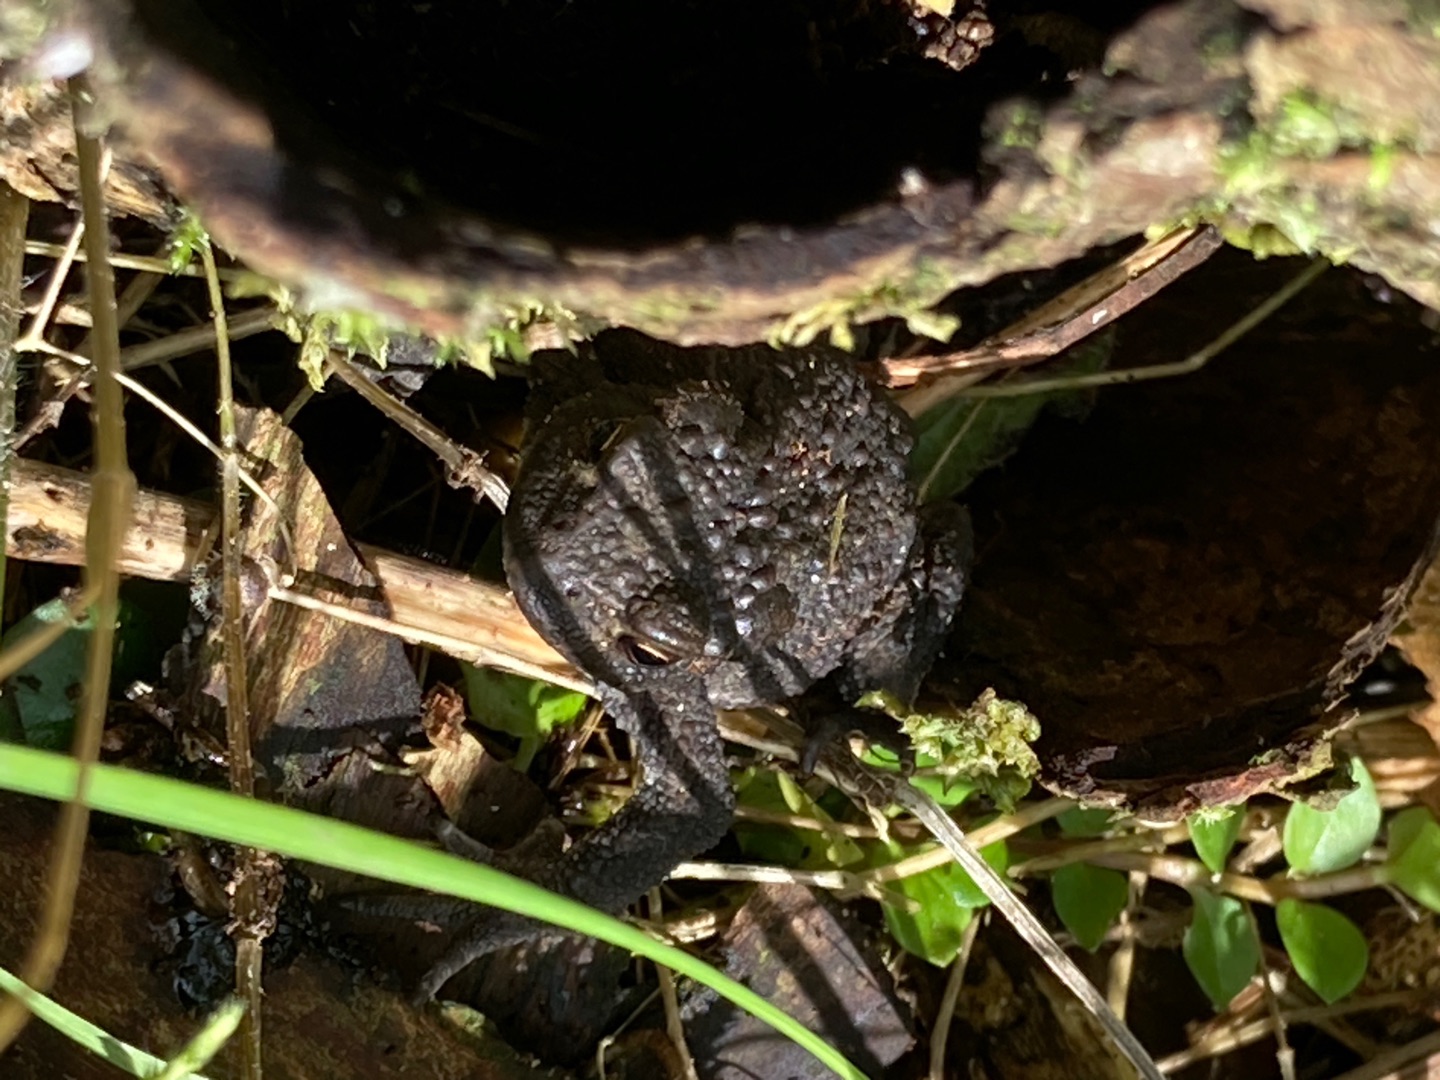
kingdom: Animalia
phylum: Chordata
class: Amphibia
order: Anura
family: Bufonidae
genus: Bufo
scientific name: Bufo bufo
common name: Skrubtudse
